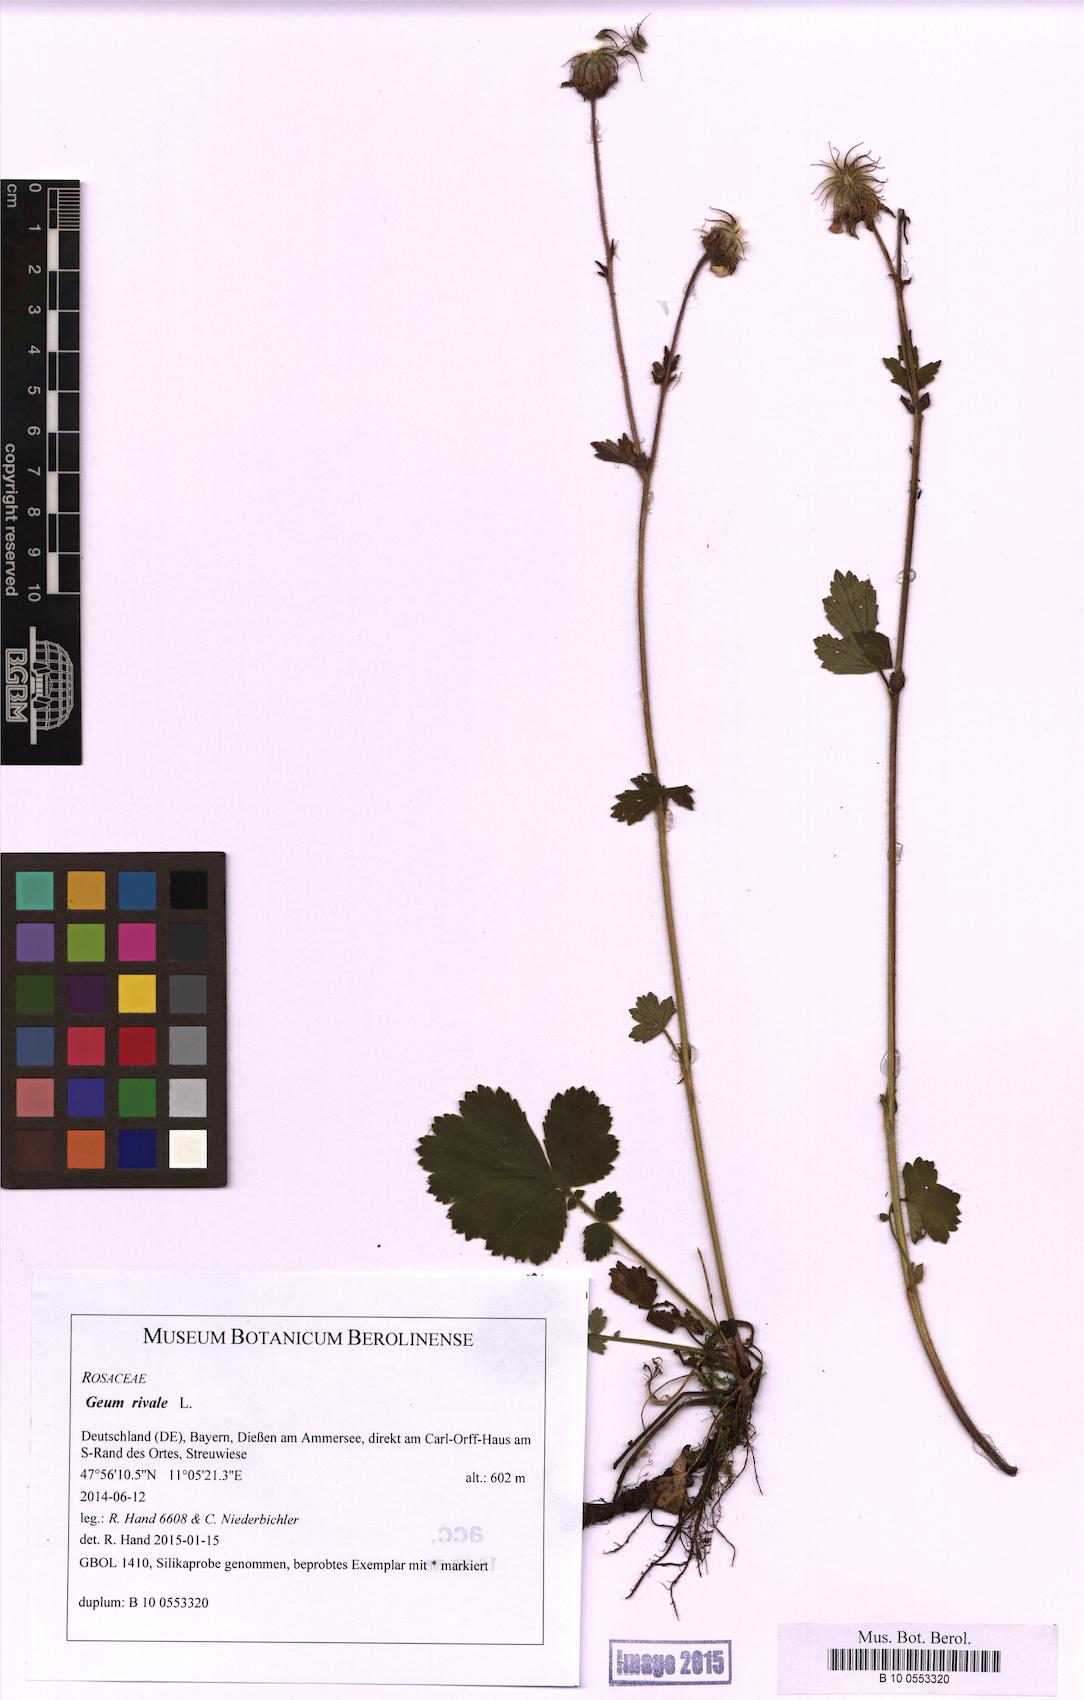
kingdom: Plantae
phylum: Tracheophyta
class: Magnoliopsida
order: Rosales
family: Rosaceae
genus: Geum
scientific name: Geum rivale
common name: Water avens
